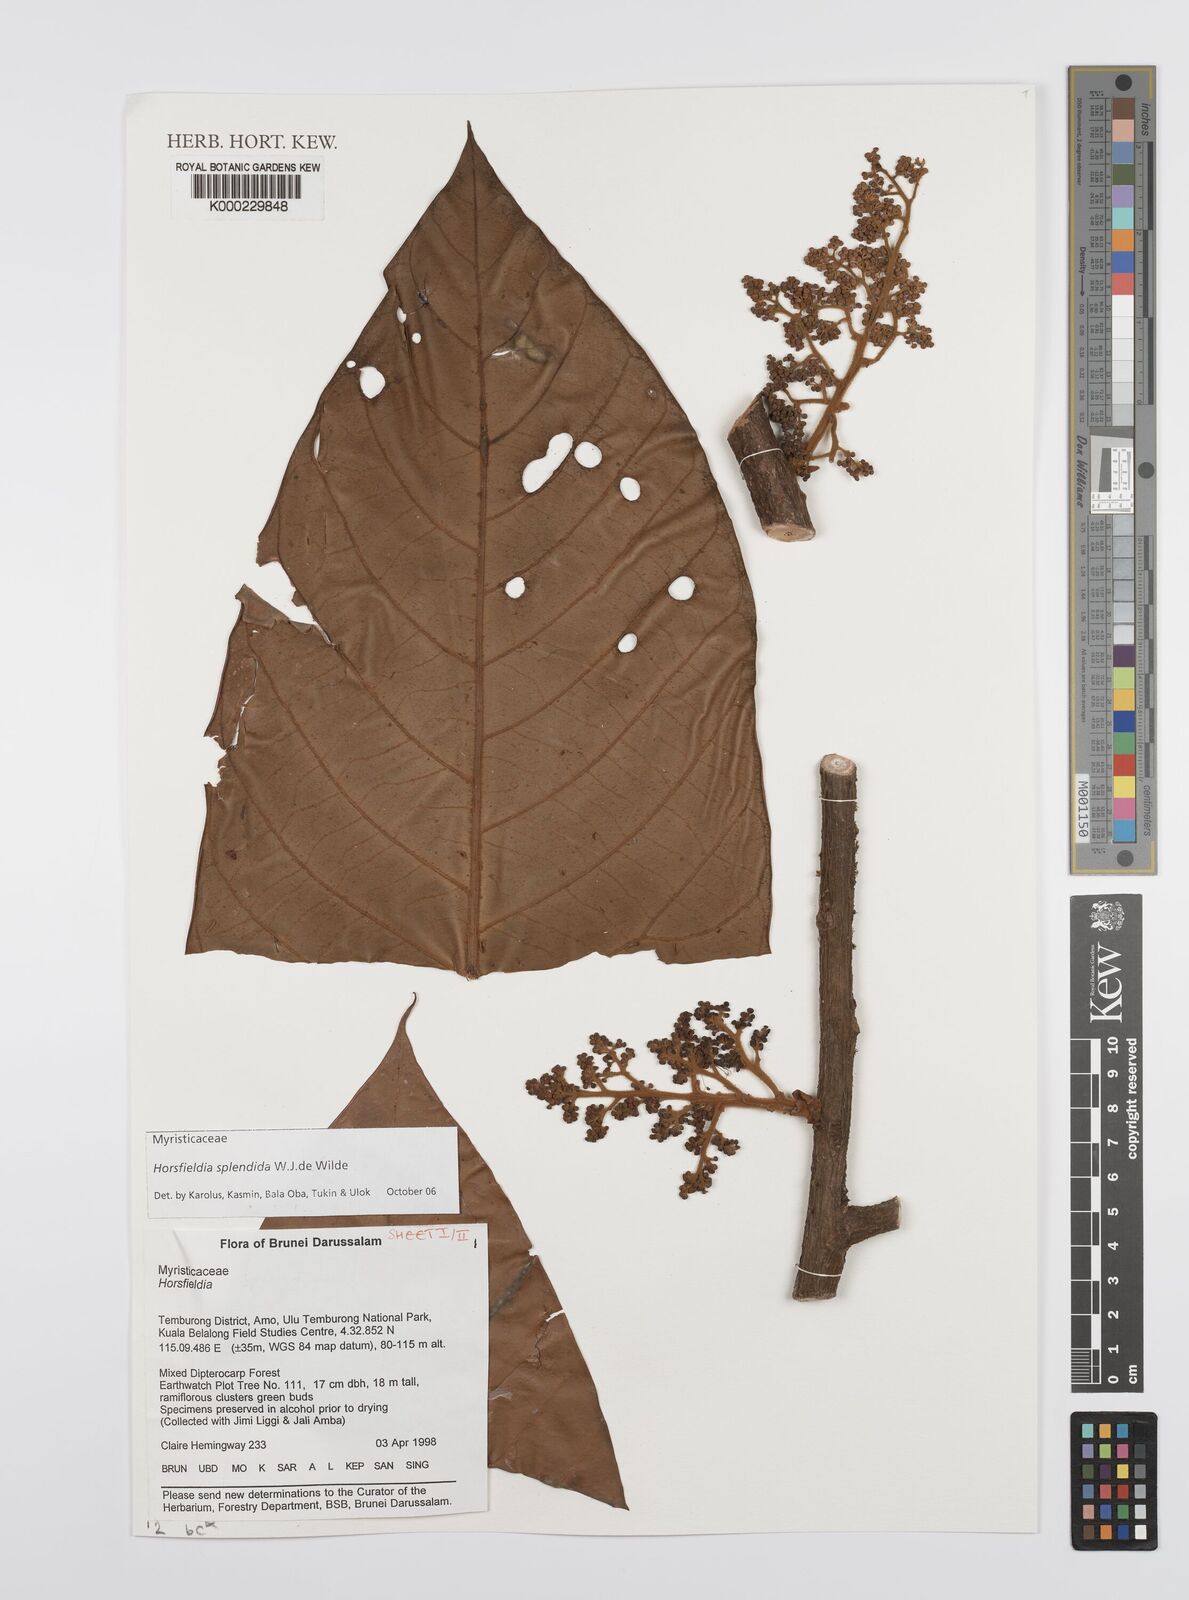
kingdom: Plantae
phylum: Tracheophyta
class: Magnoliopsida
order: Magnoliales
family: Myristicaceae
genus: Horsfieldia
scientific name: Horsfieldia splendida
